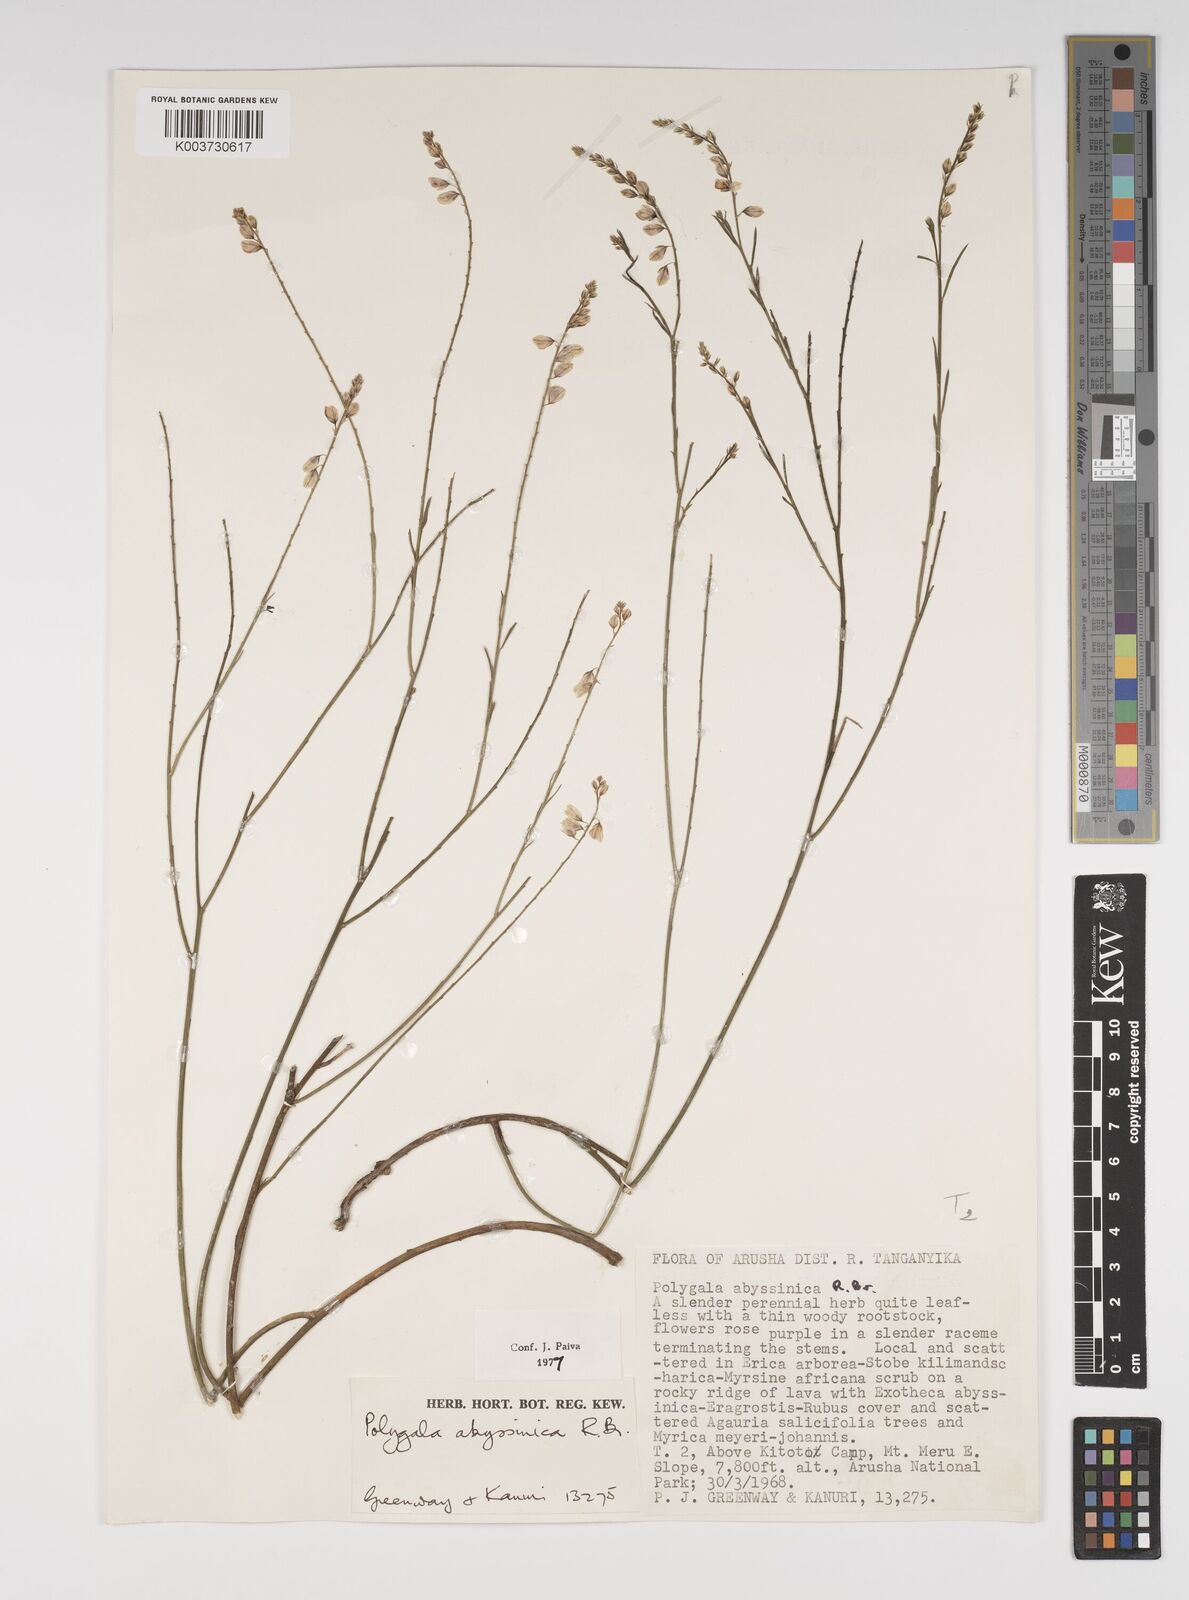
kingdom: Plantae
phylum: Tracheophyta
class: Magnoliopsida
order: Fabales
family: Polygalaceae
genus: Polygala
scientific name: Polygala abyssinica
